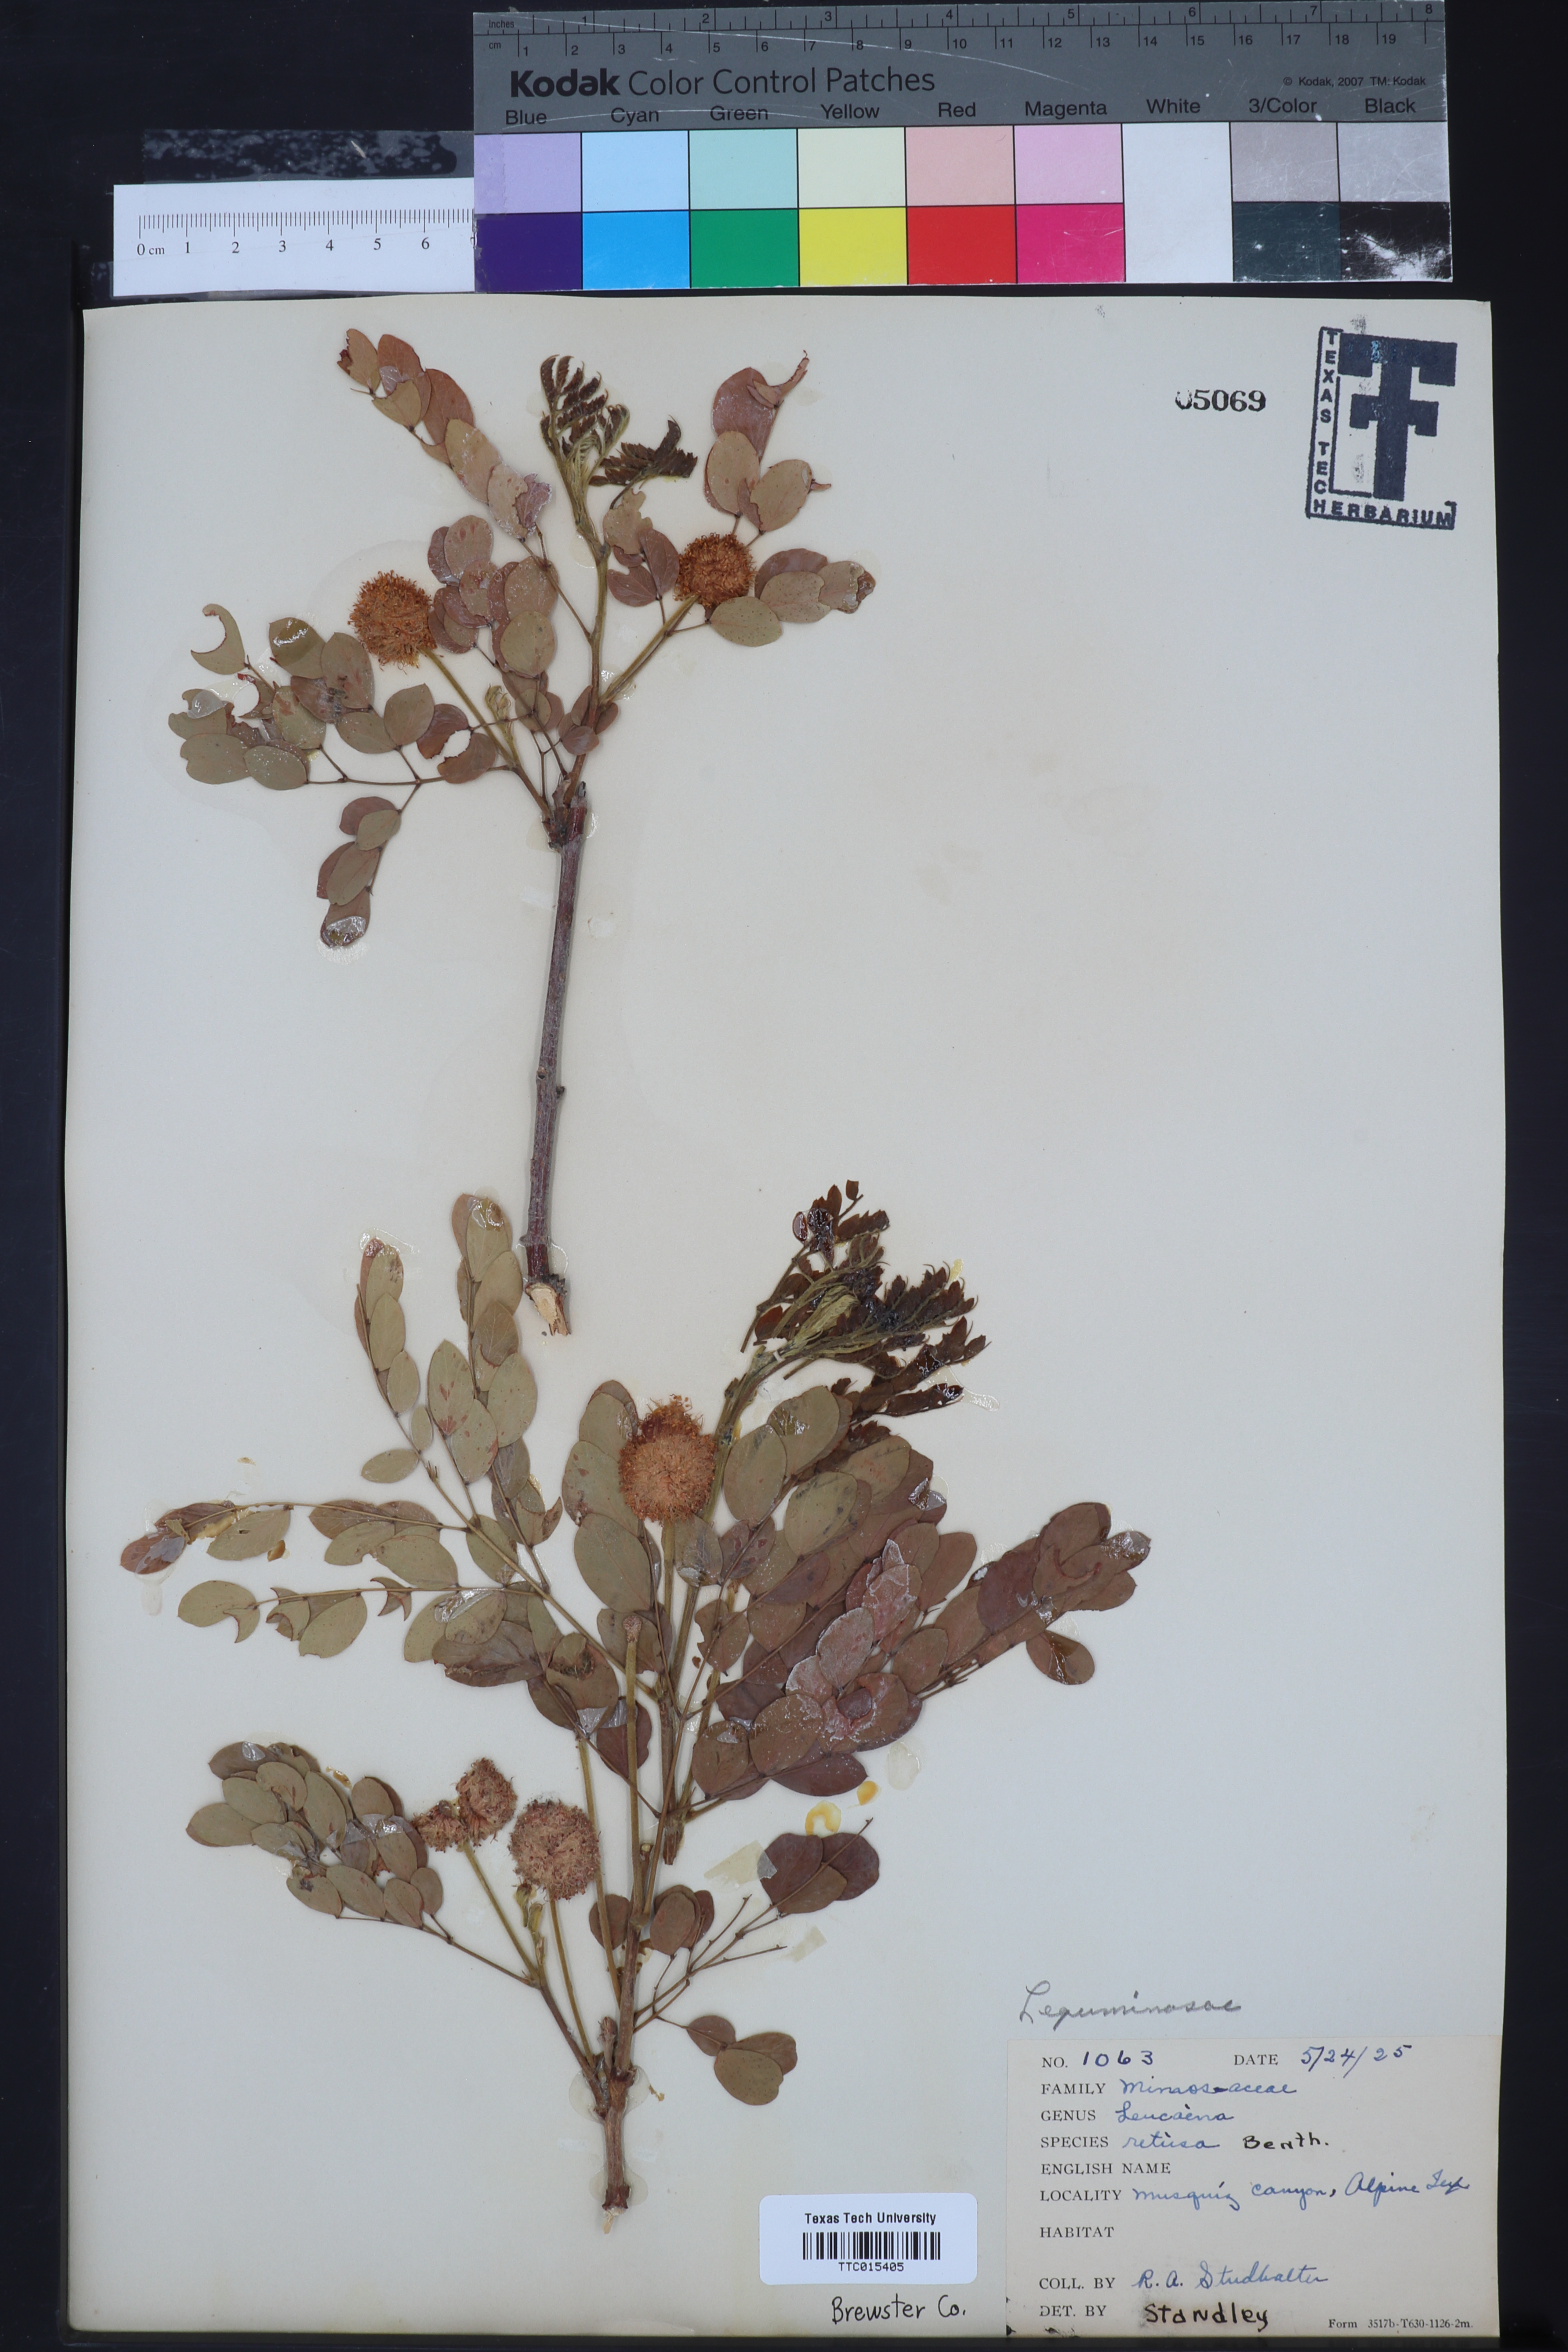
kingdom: Plantae
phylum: Tracheophyta
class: Magnoliopsida
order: Fabales
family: Fabaceae
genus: Leucaena
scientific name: Leucaena retusa
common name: Littleleaf leadtree
